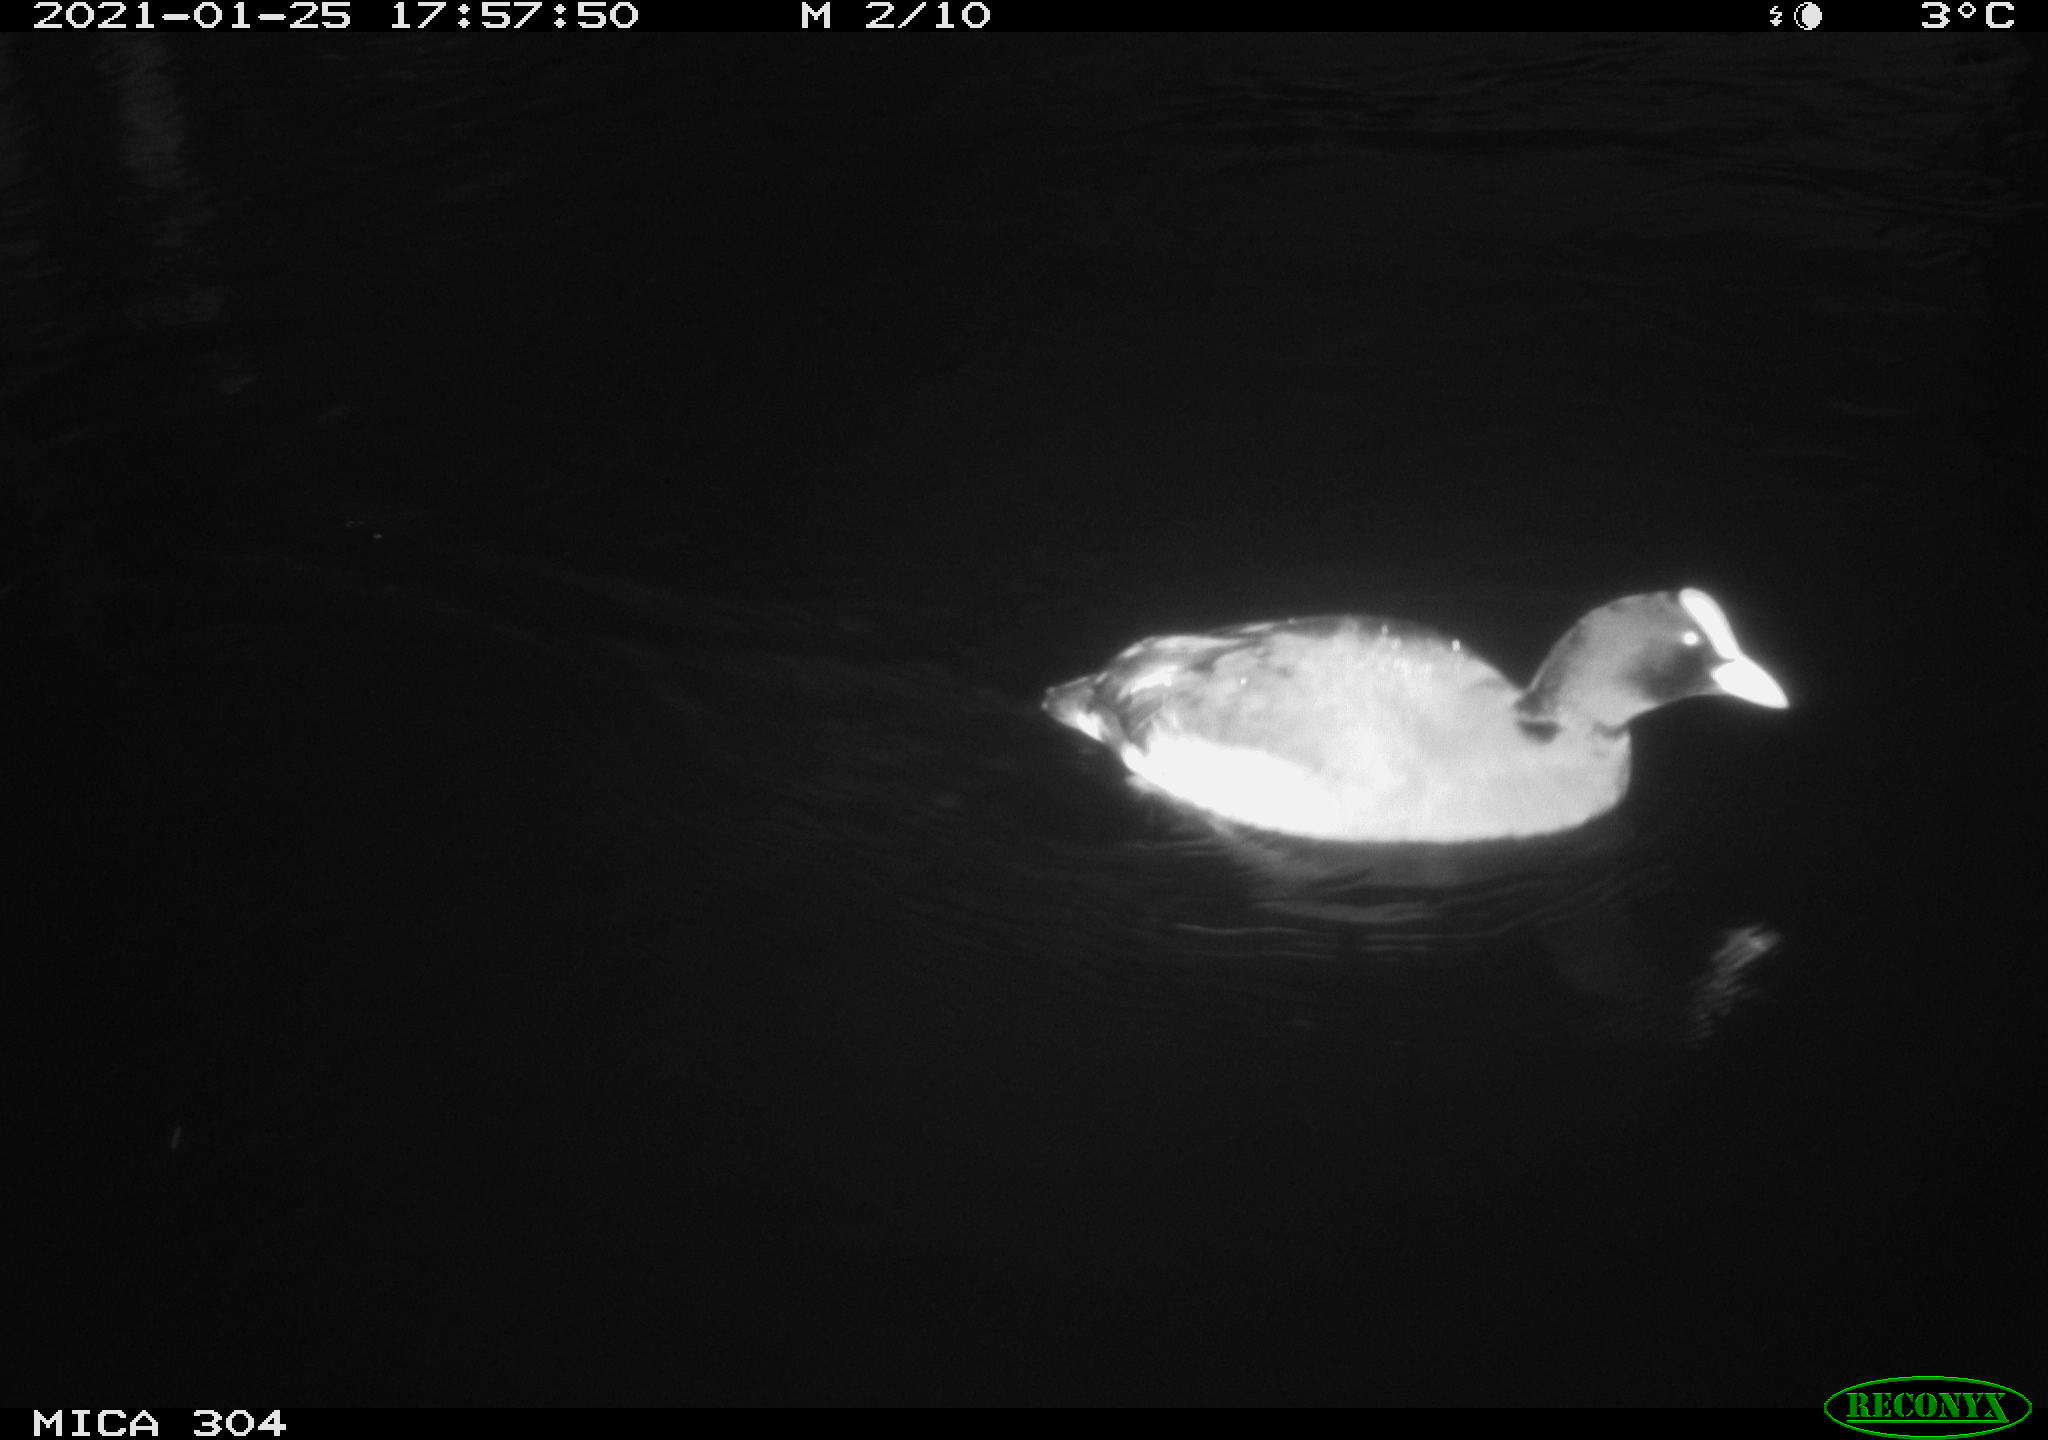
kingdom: Animalia
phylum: Chordata
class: Aves
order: Gruiformes
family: Rallidae
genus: Fulica
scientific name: Fulica atra
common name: Eurasian coot
